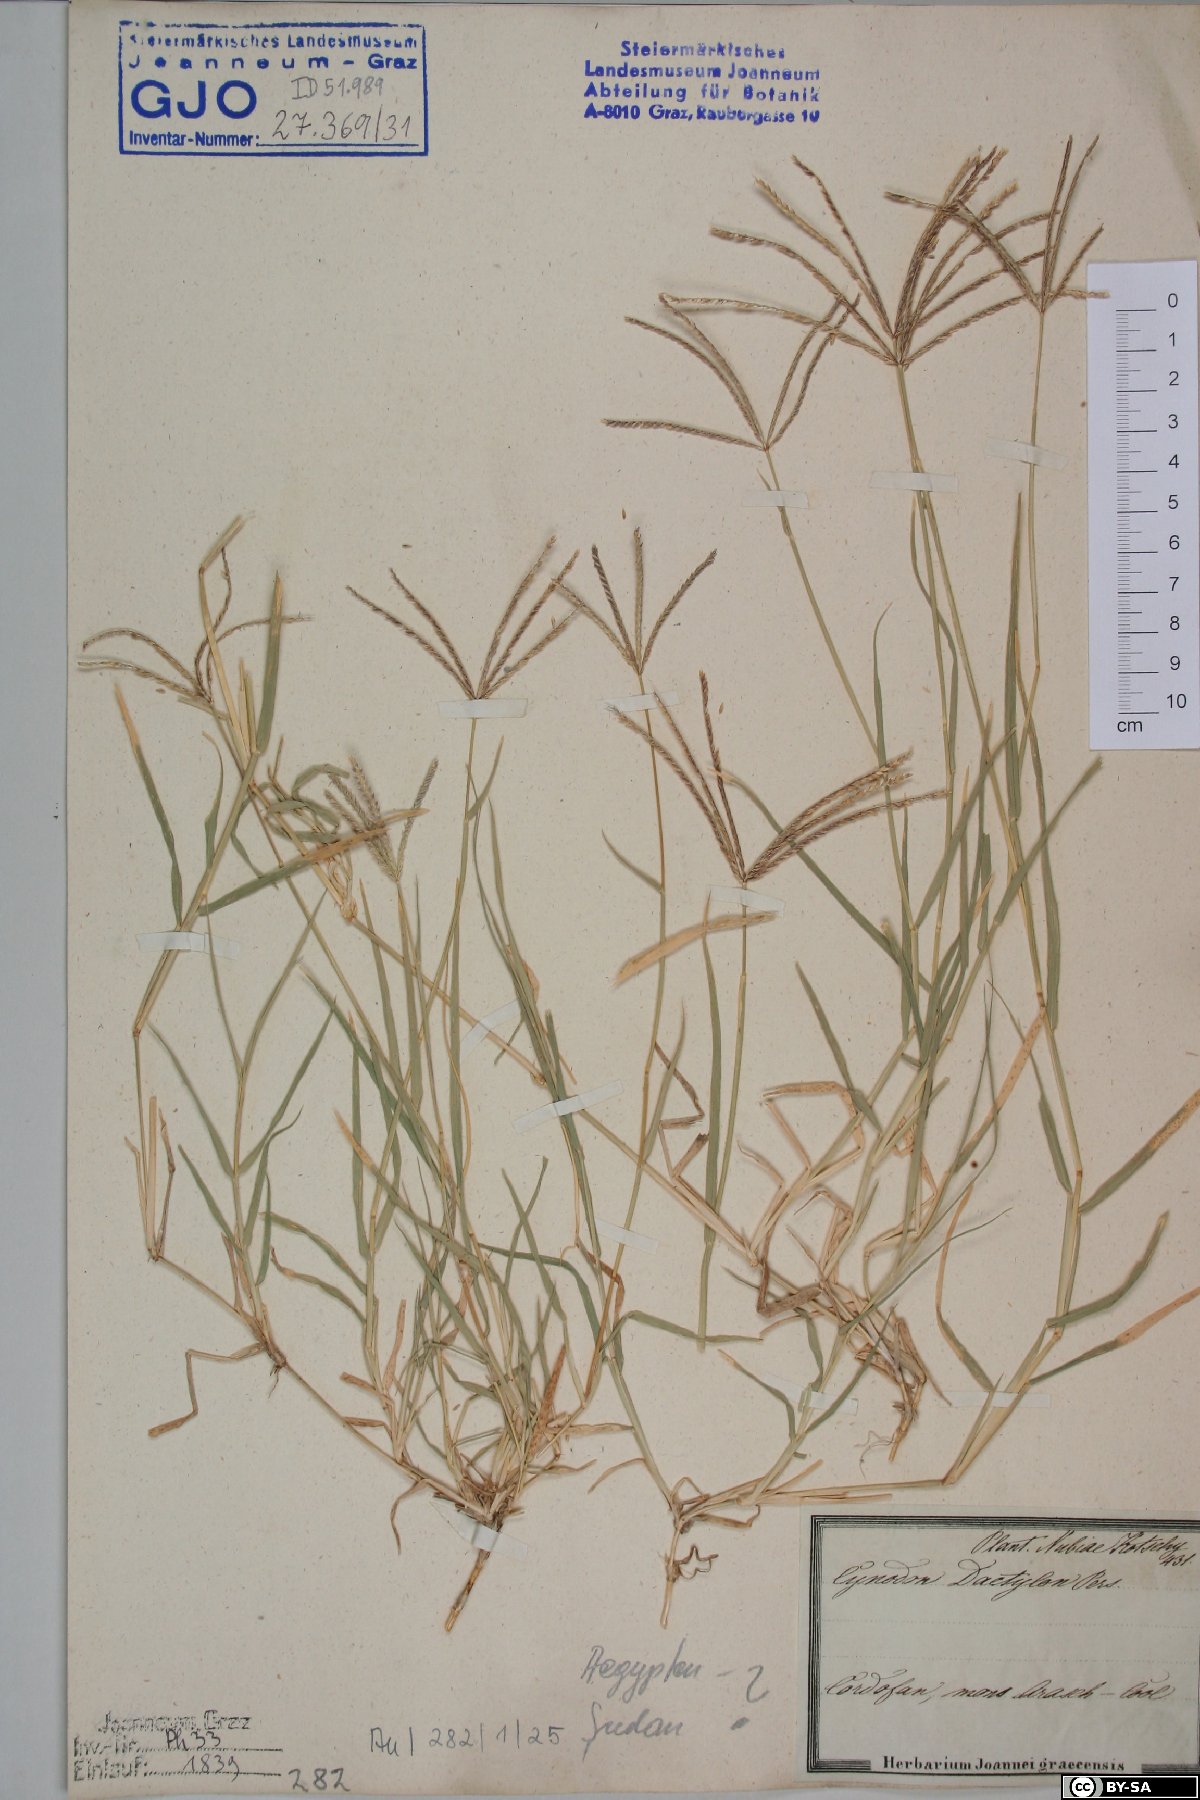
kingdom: Plantae
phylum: Tracheophyta
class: Liliopsida
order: Poales
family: Poaceae
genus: Cynodon
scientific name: Cynodon dactylon
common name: Bermuda grass
